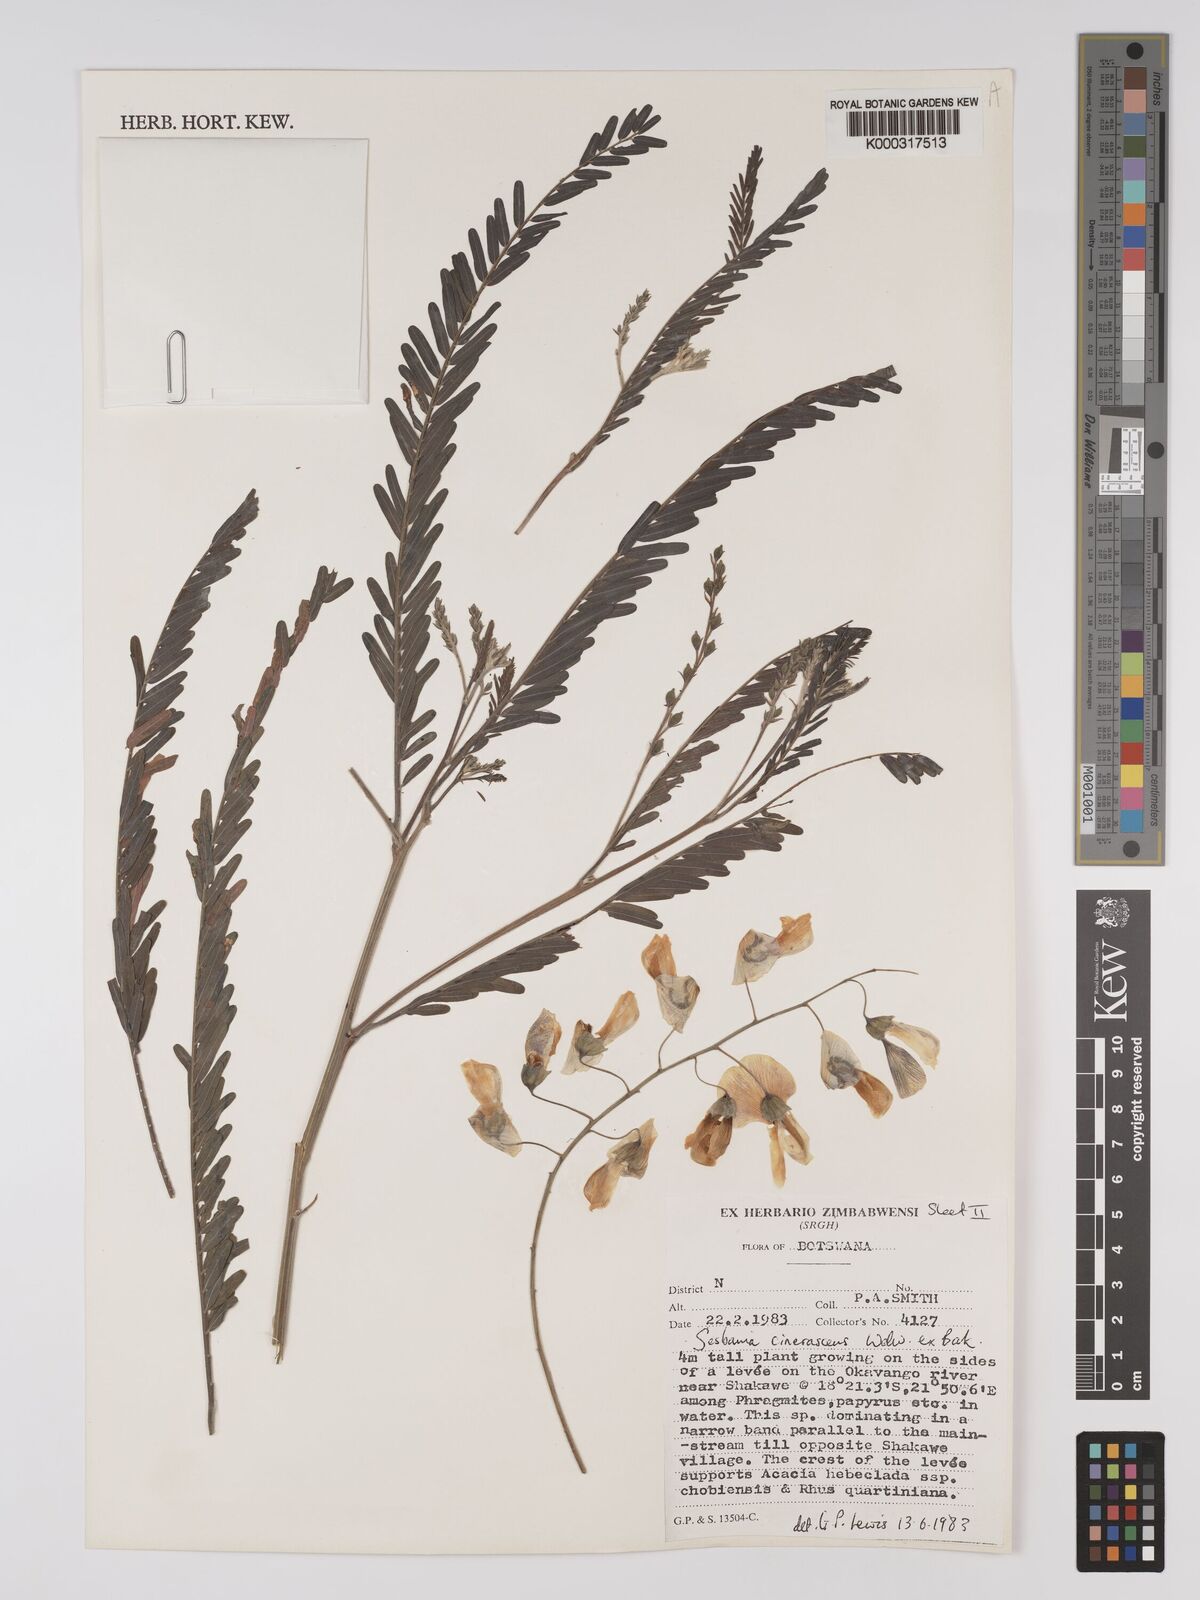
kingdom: Plantae
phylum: Tracheophyta
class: Magnoliopsida
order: Fabales
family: Fabaceae
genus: Sesbania
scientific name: Sesbania cinerascens
